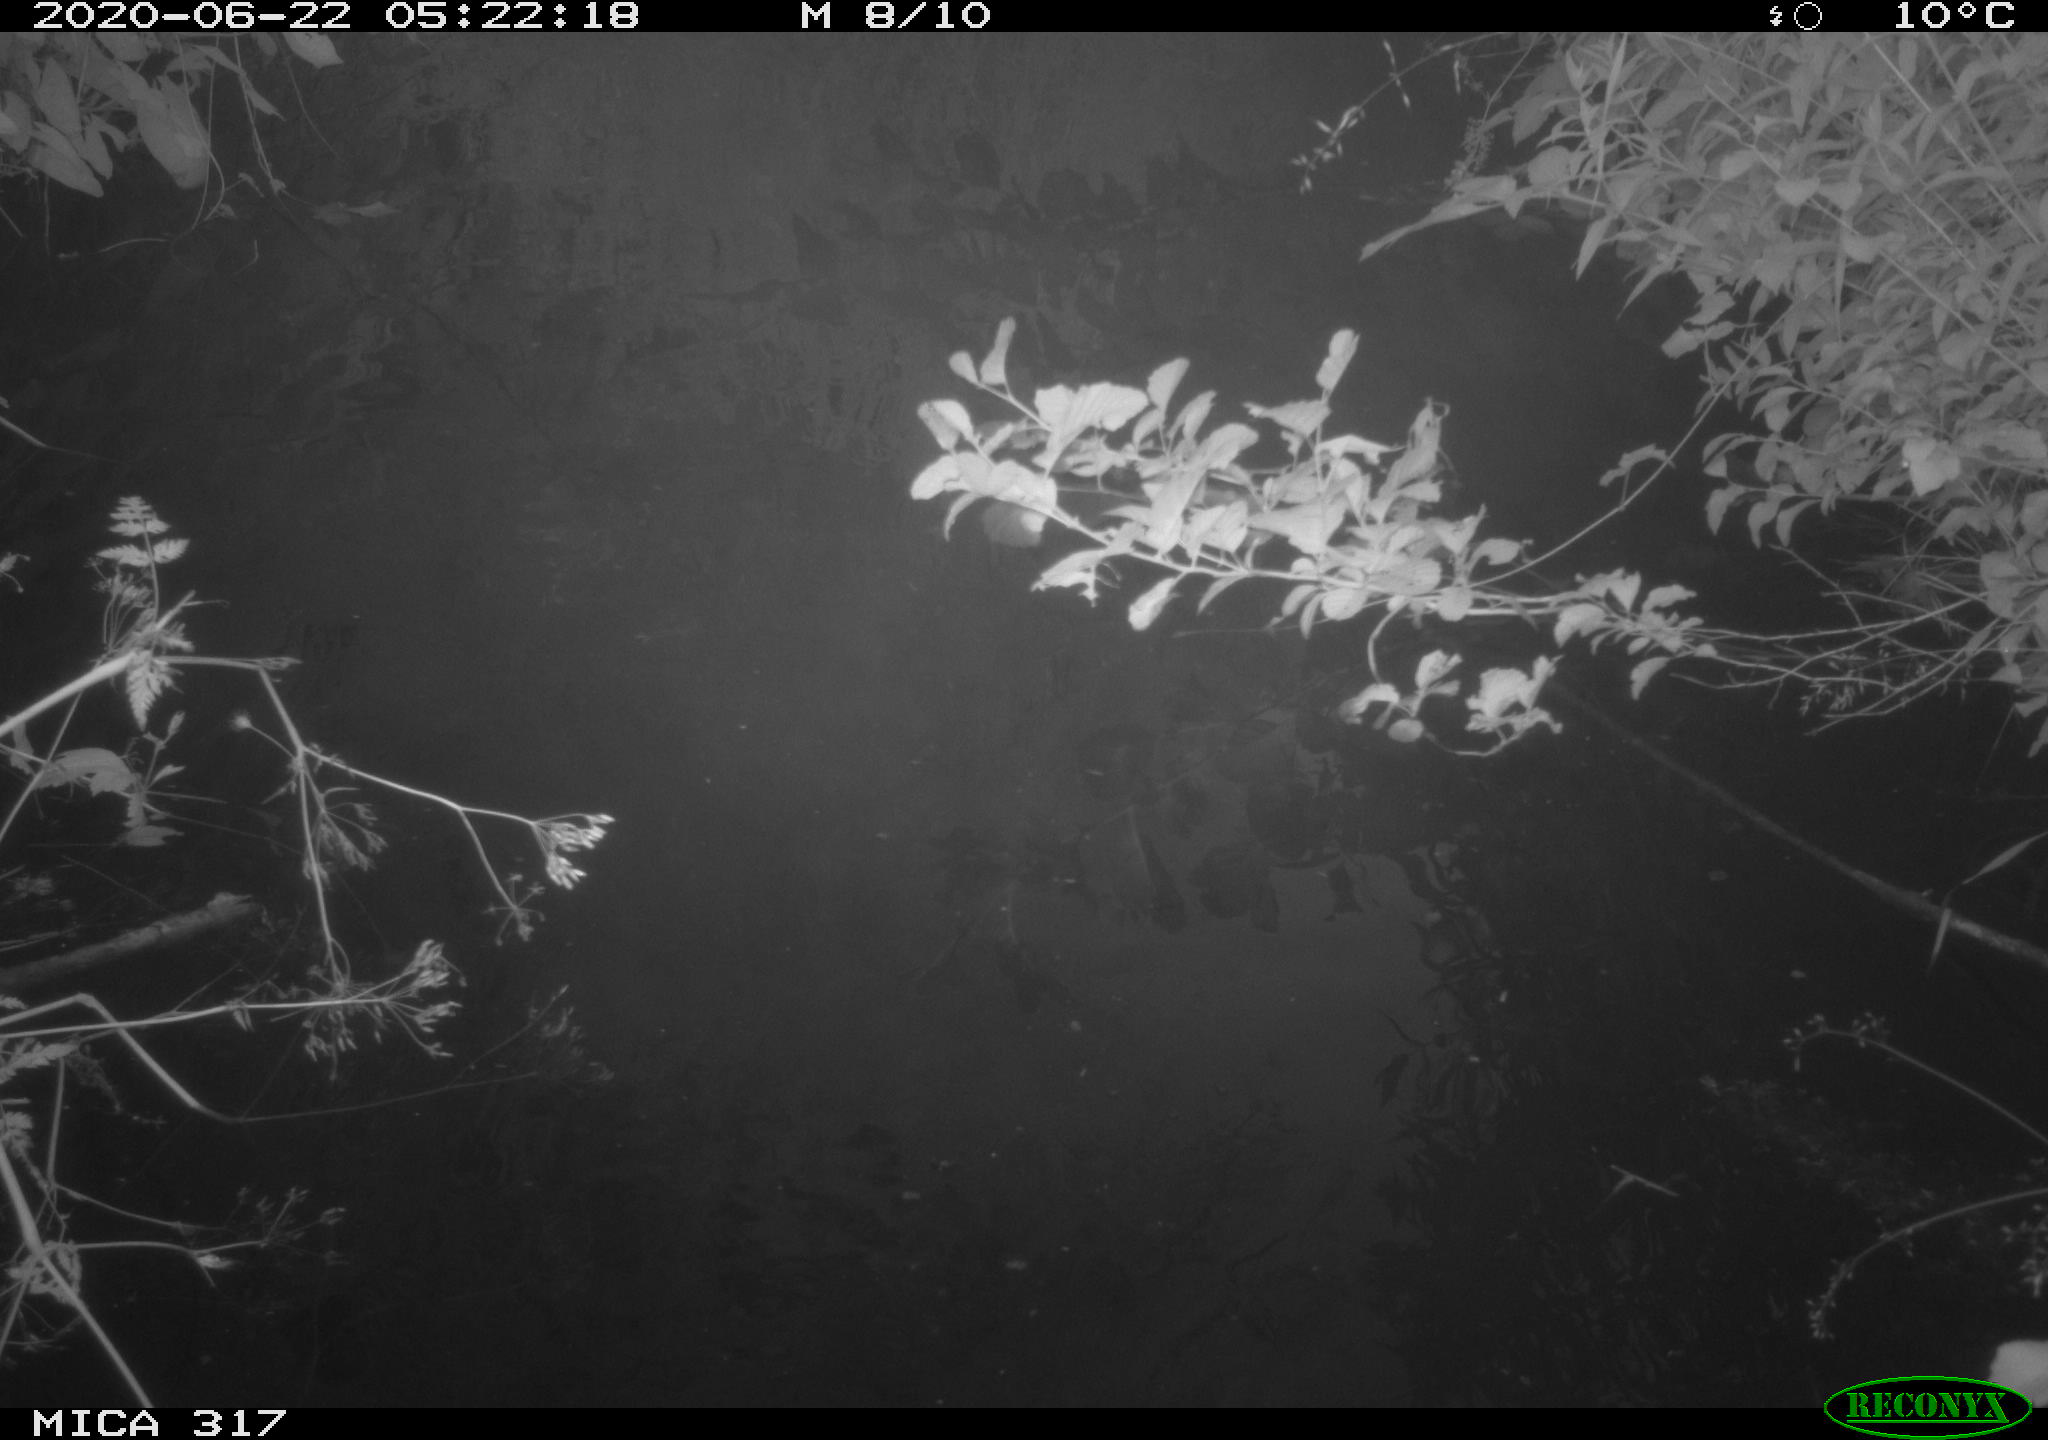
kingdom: Animalia
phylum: Chordata
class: Aves
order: Anseriformes
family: Anatidae
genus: Anas
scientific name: Anas platyrhynchos
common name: Mallard
